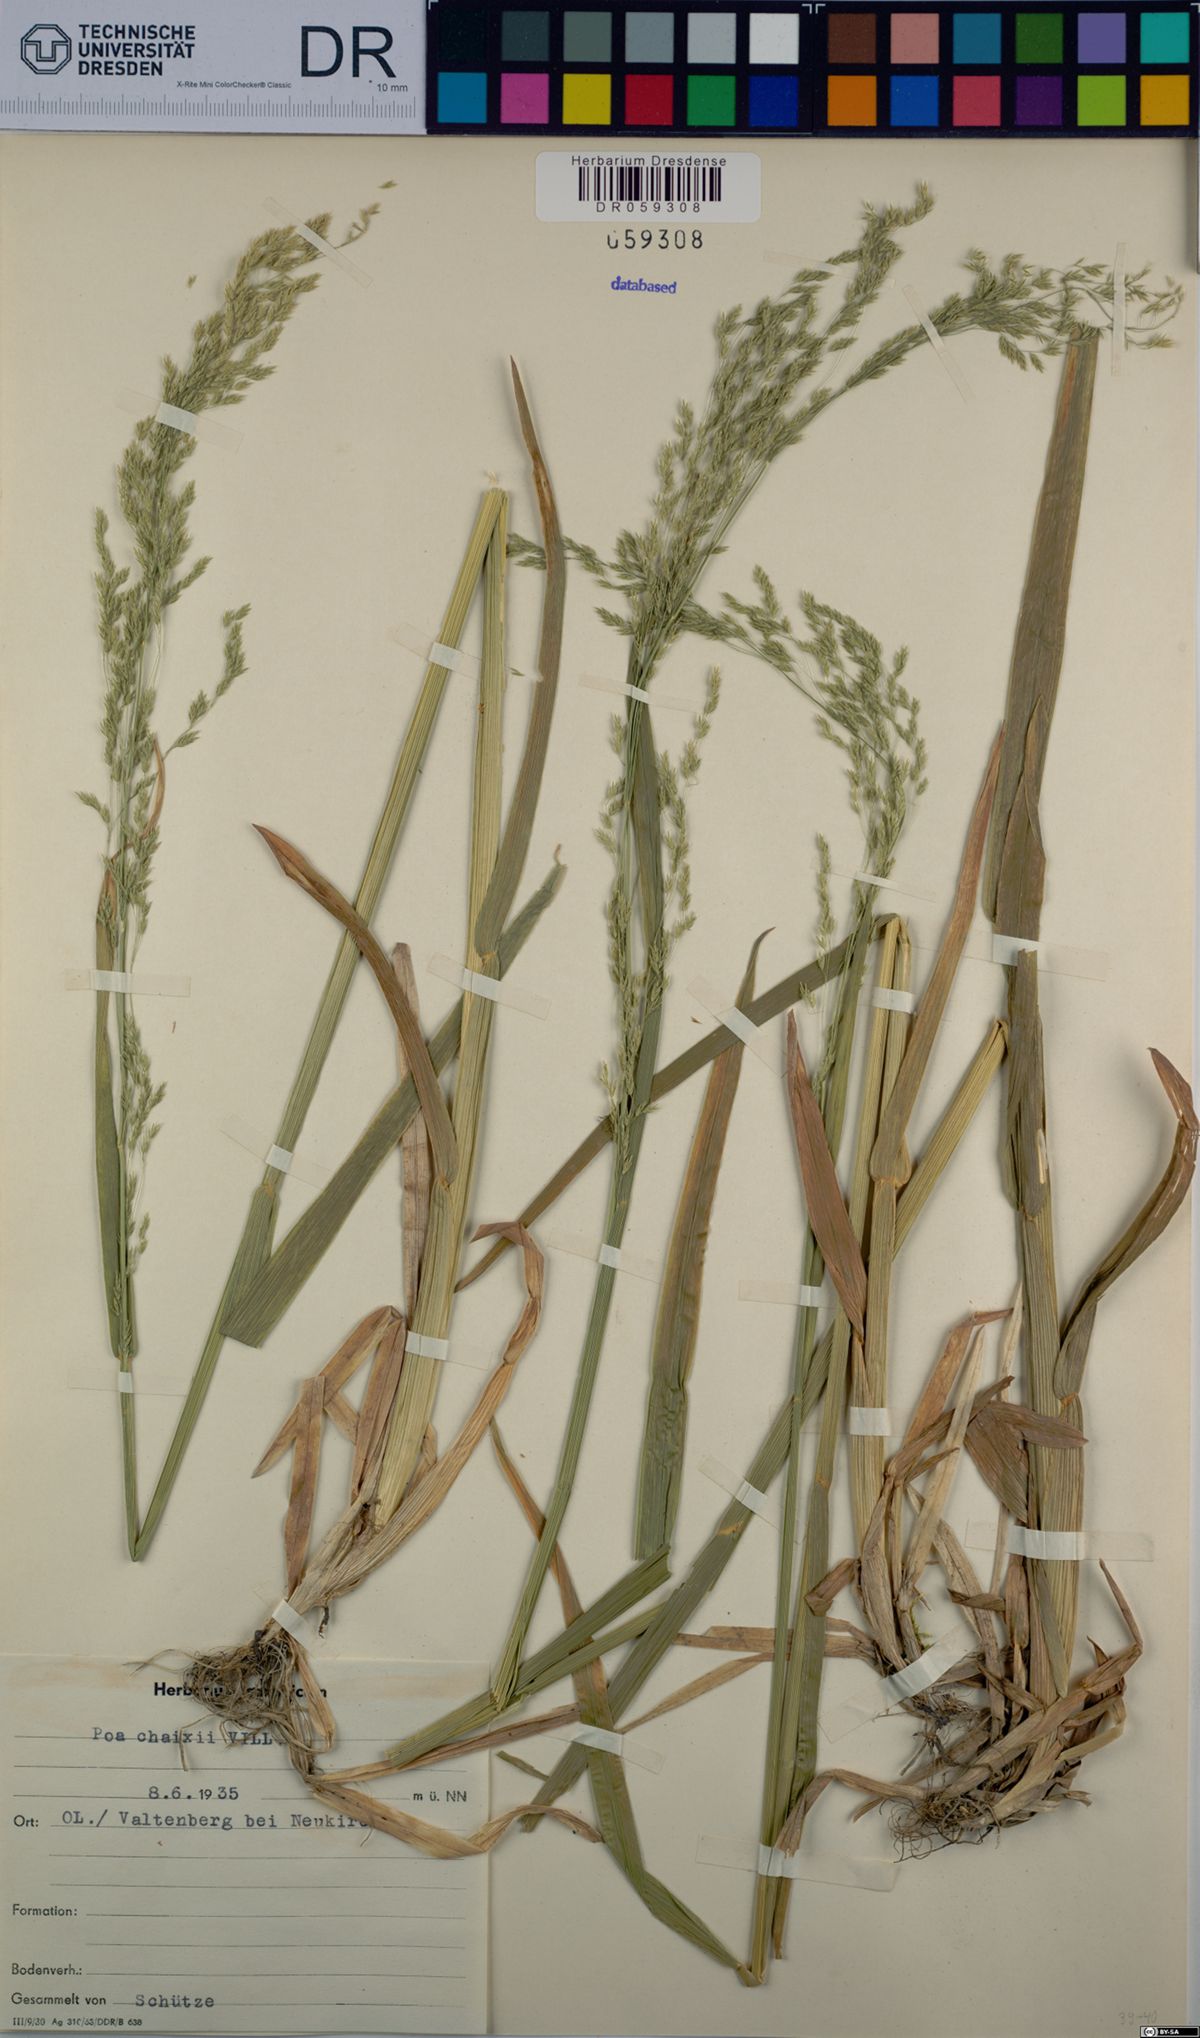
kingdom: Plantae
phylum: Tracheophyta
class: Liliopsida
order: Poales
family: Poaceae
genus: Poa
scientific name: Poa chaixii
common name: Broad-leaved meadow-grass
